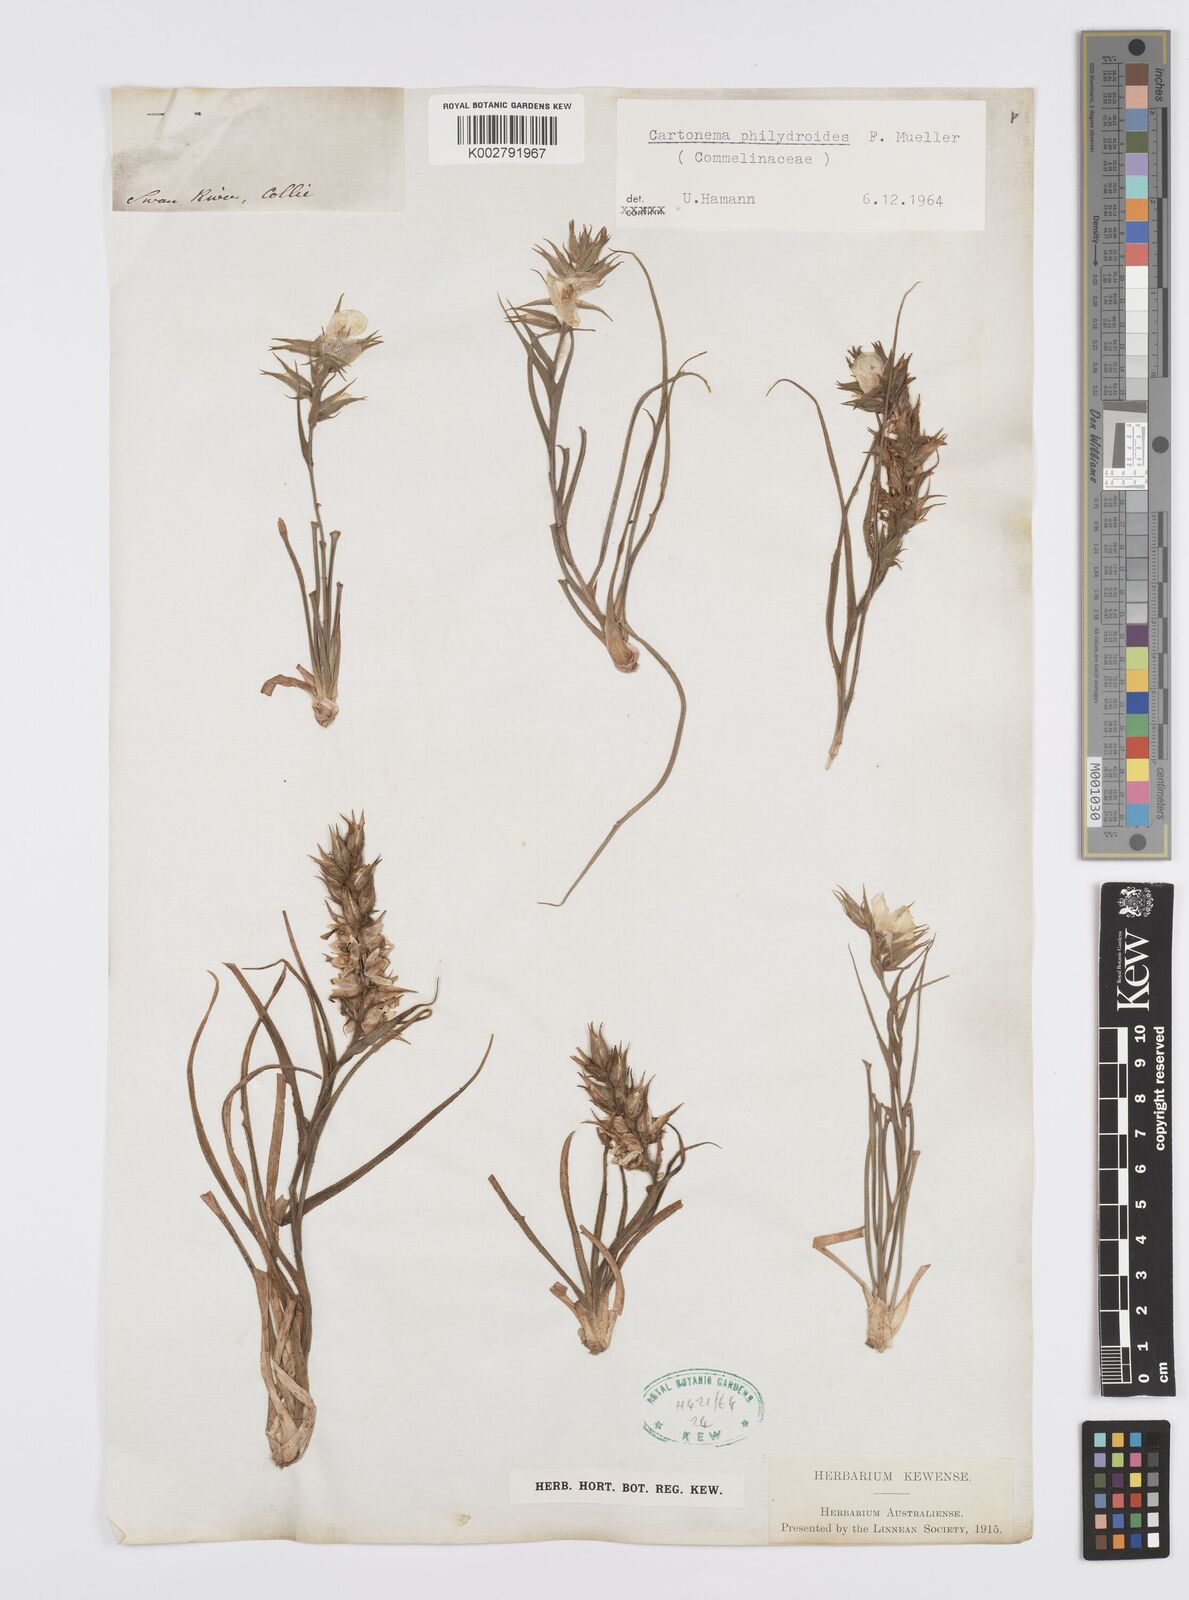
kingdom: Plantae
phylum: Tracheophyta
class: Liliopsida
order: Commelinales
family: Commelinaceae
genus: Cartonema
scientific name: Cartonema philydroides
